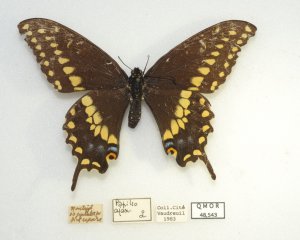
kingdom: Animalia
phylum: Arthropoda
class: Insecta
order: Lepidoptera
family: Papilionidae
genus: Papilio
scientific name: Papilio polyxenes
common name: Black Swallowtail
